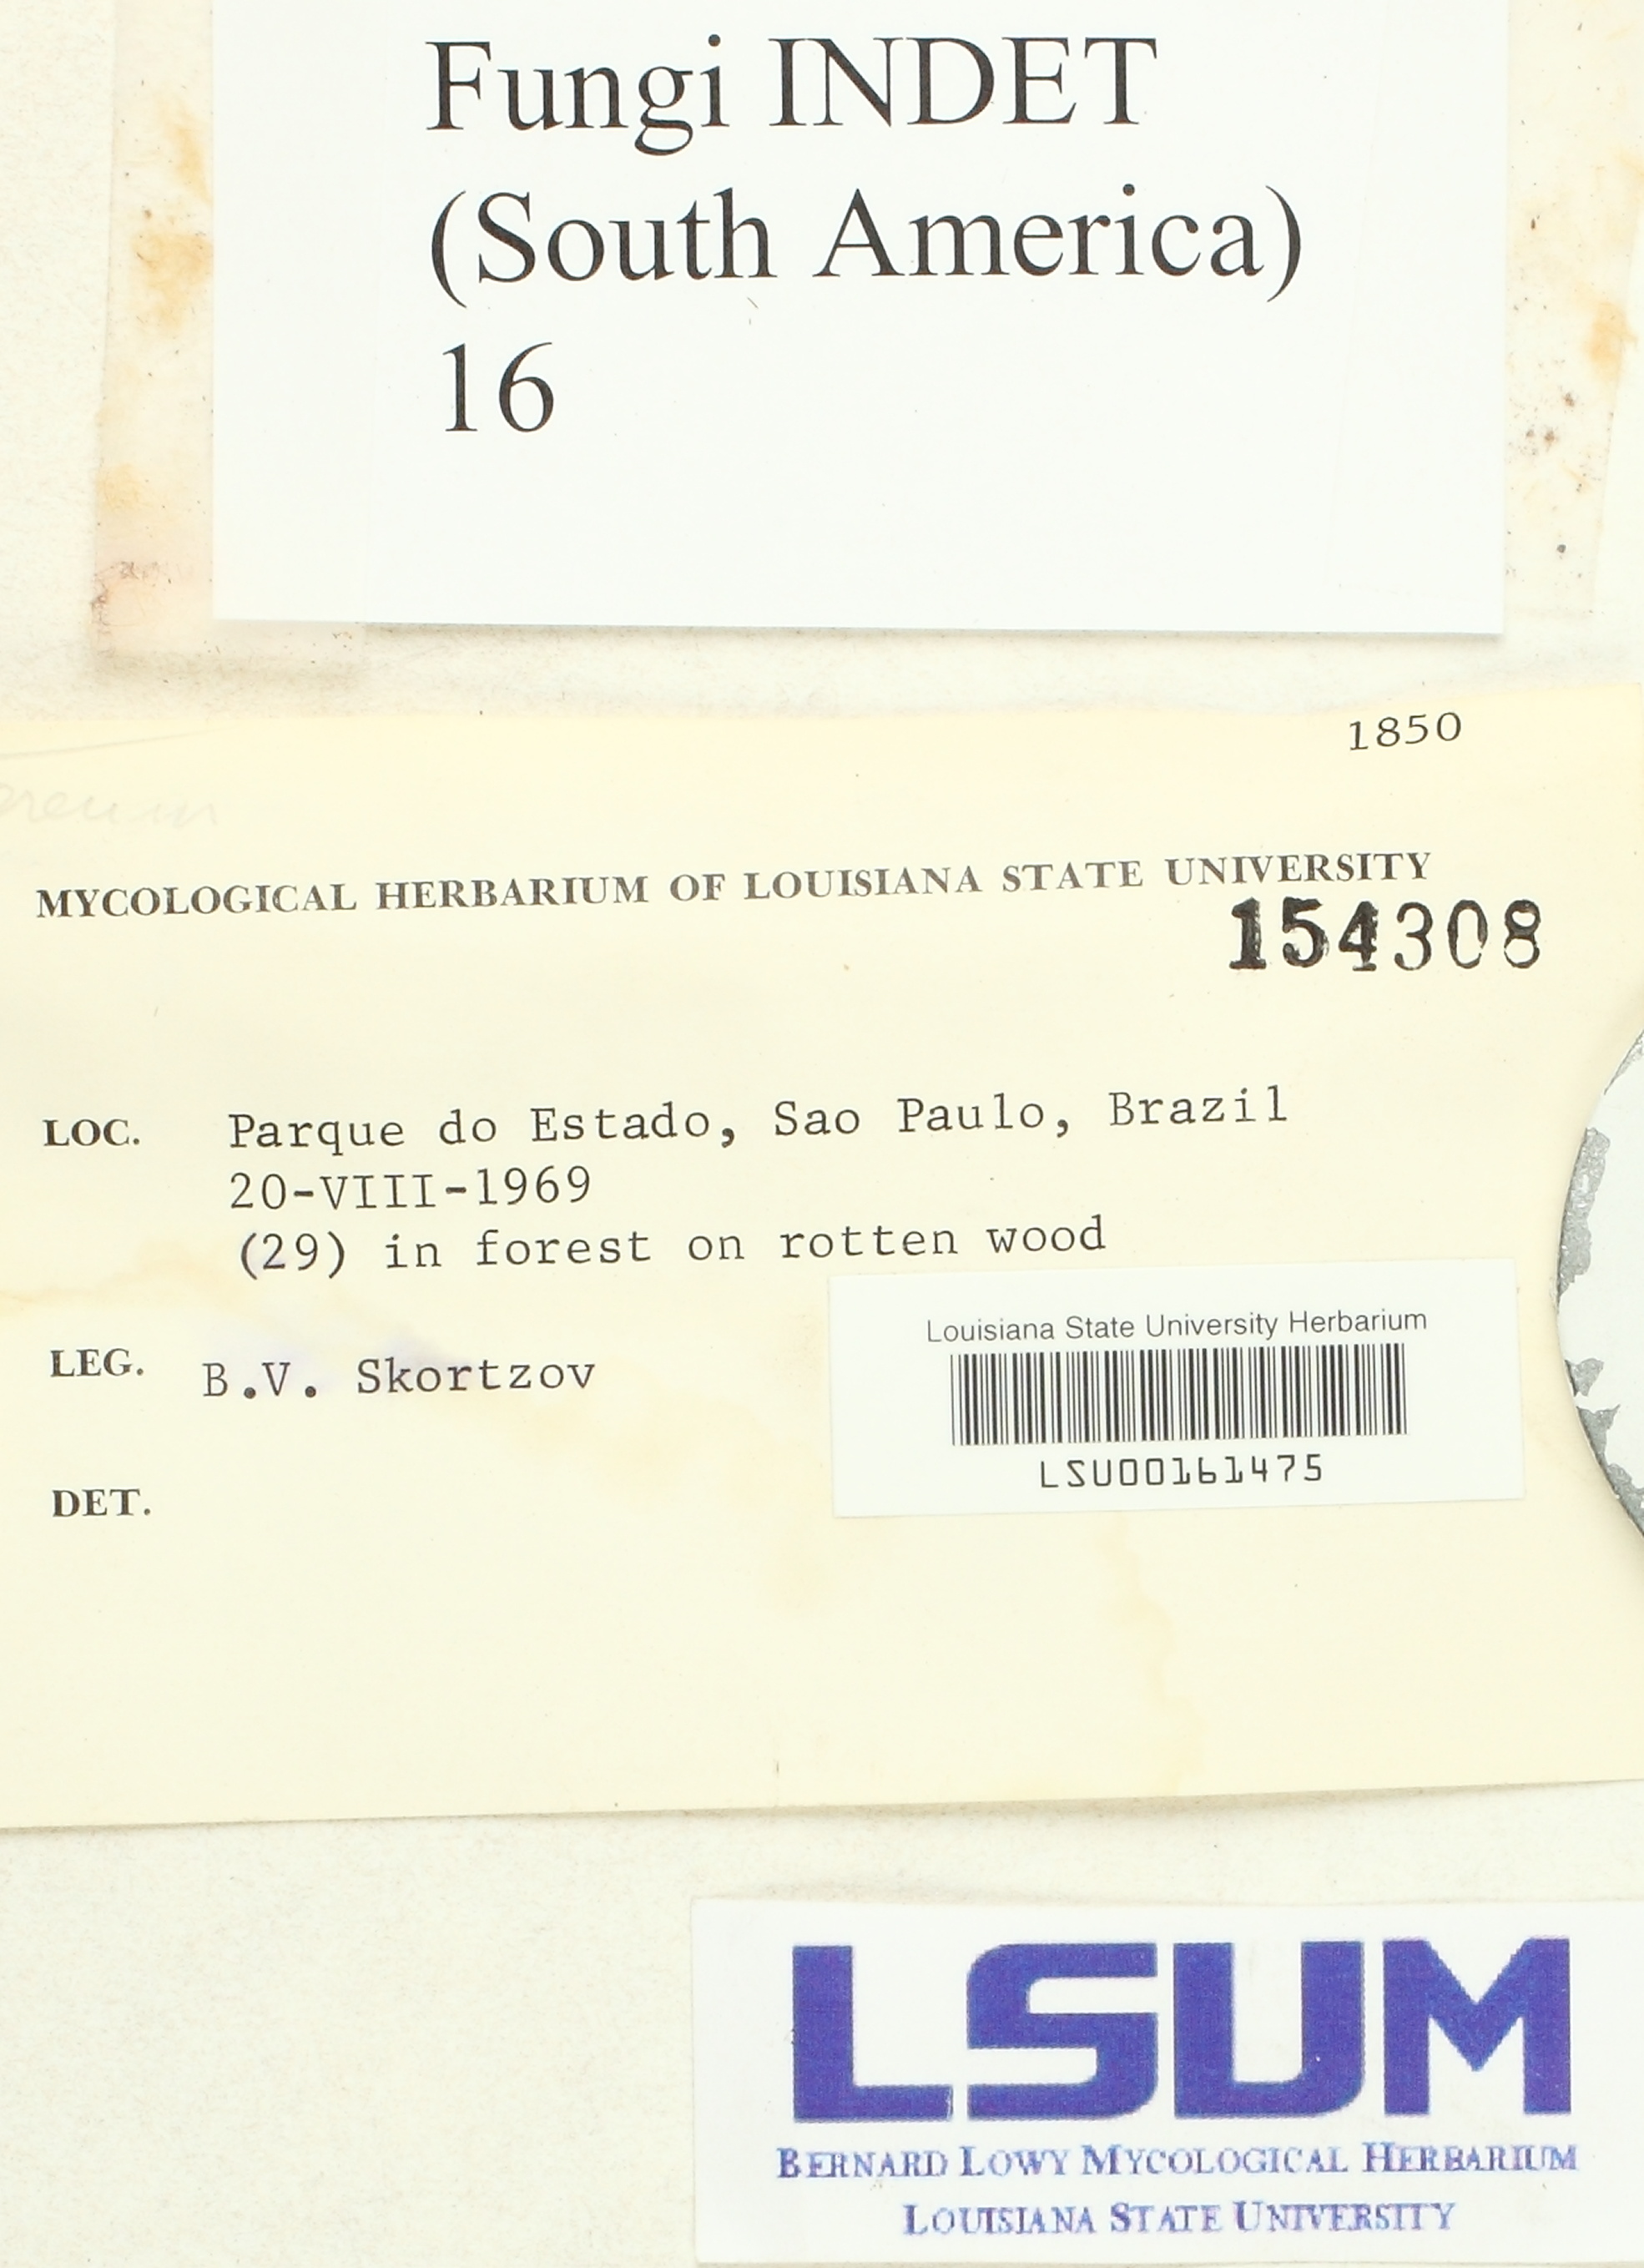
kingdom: Fungi
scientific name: Fungi
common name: Fungi
